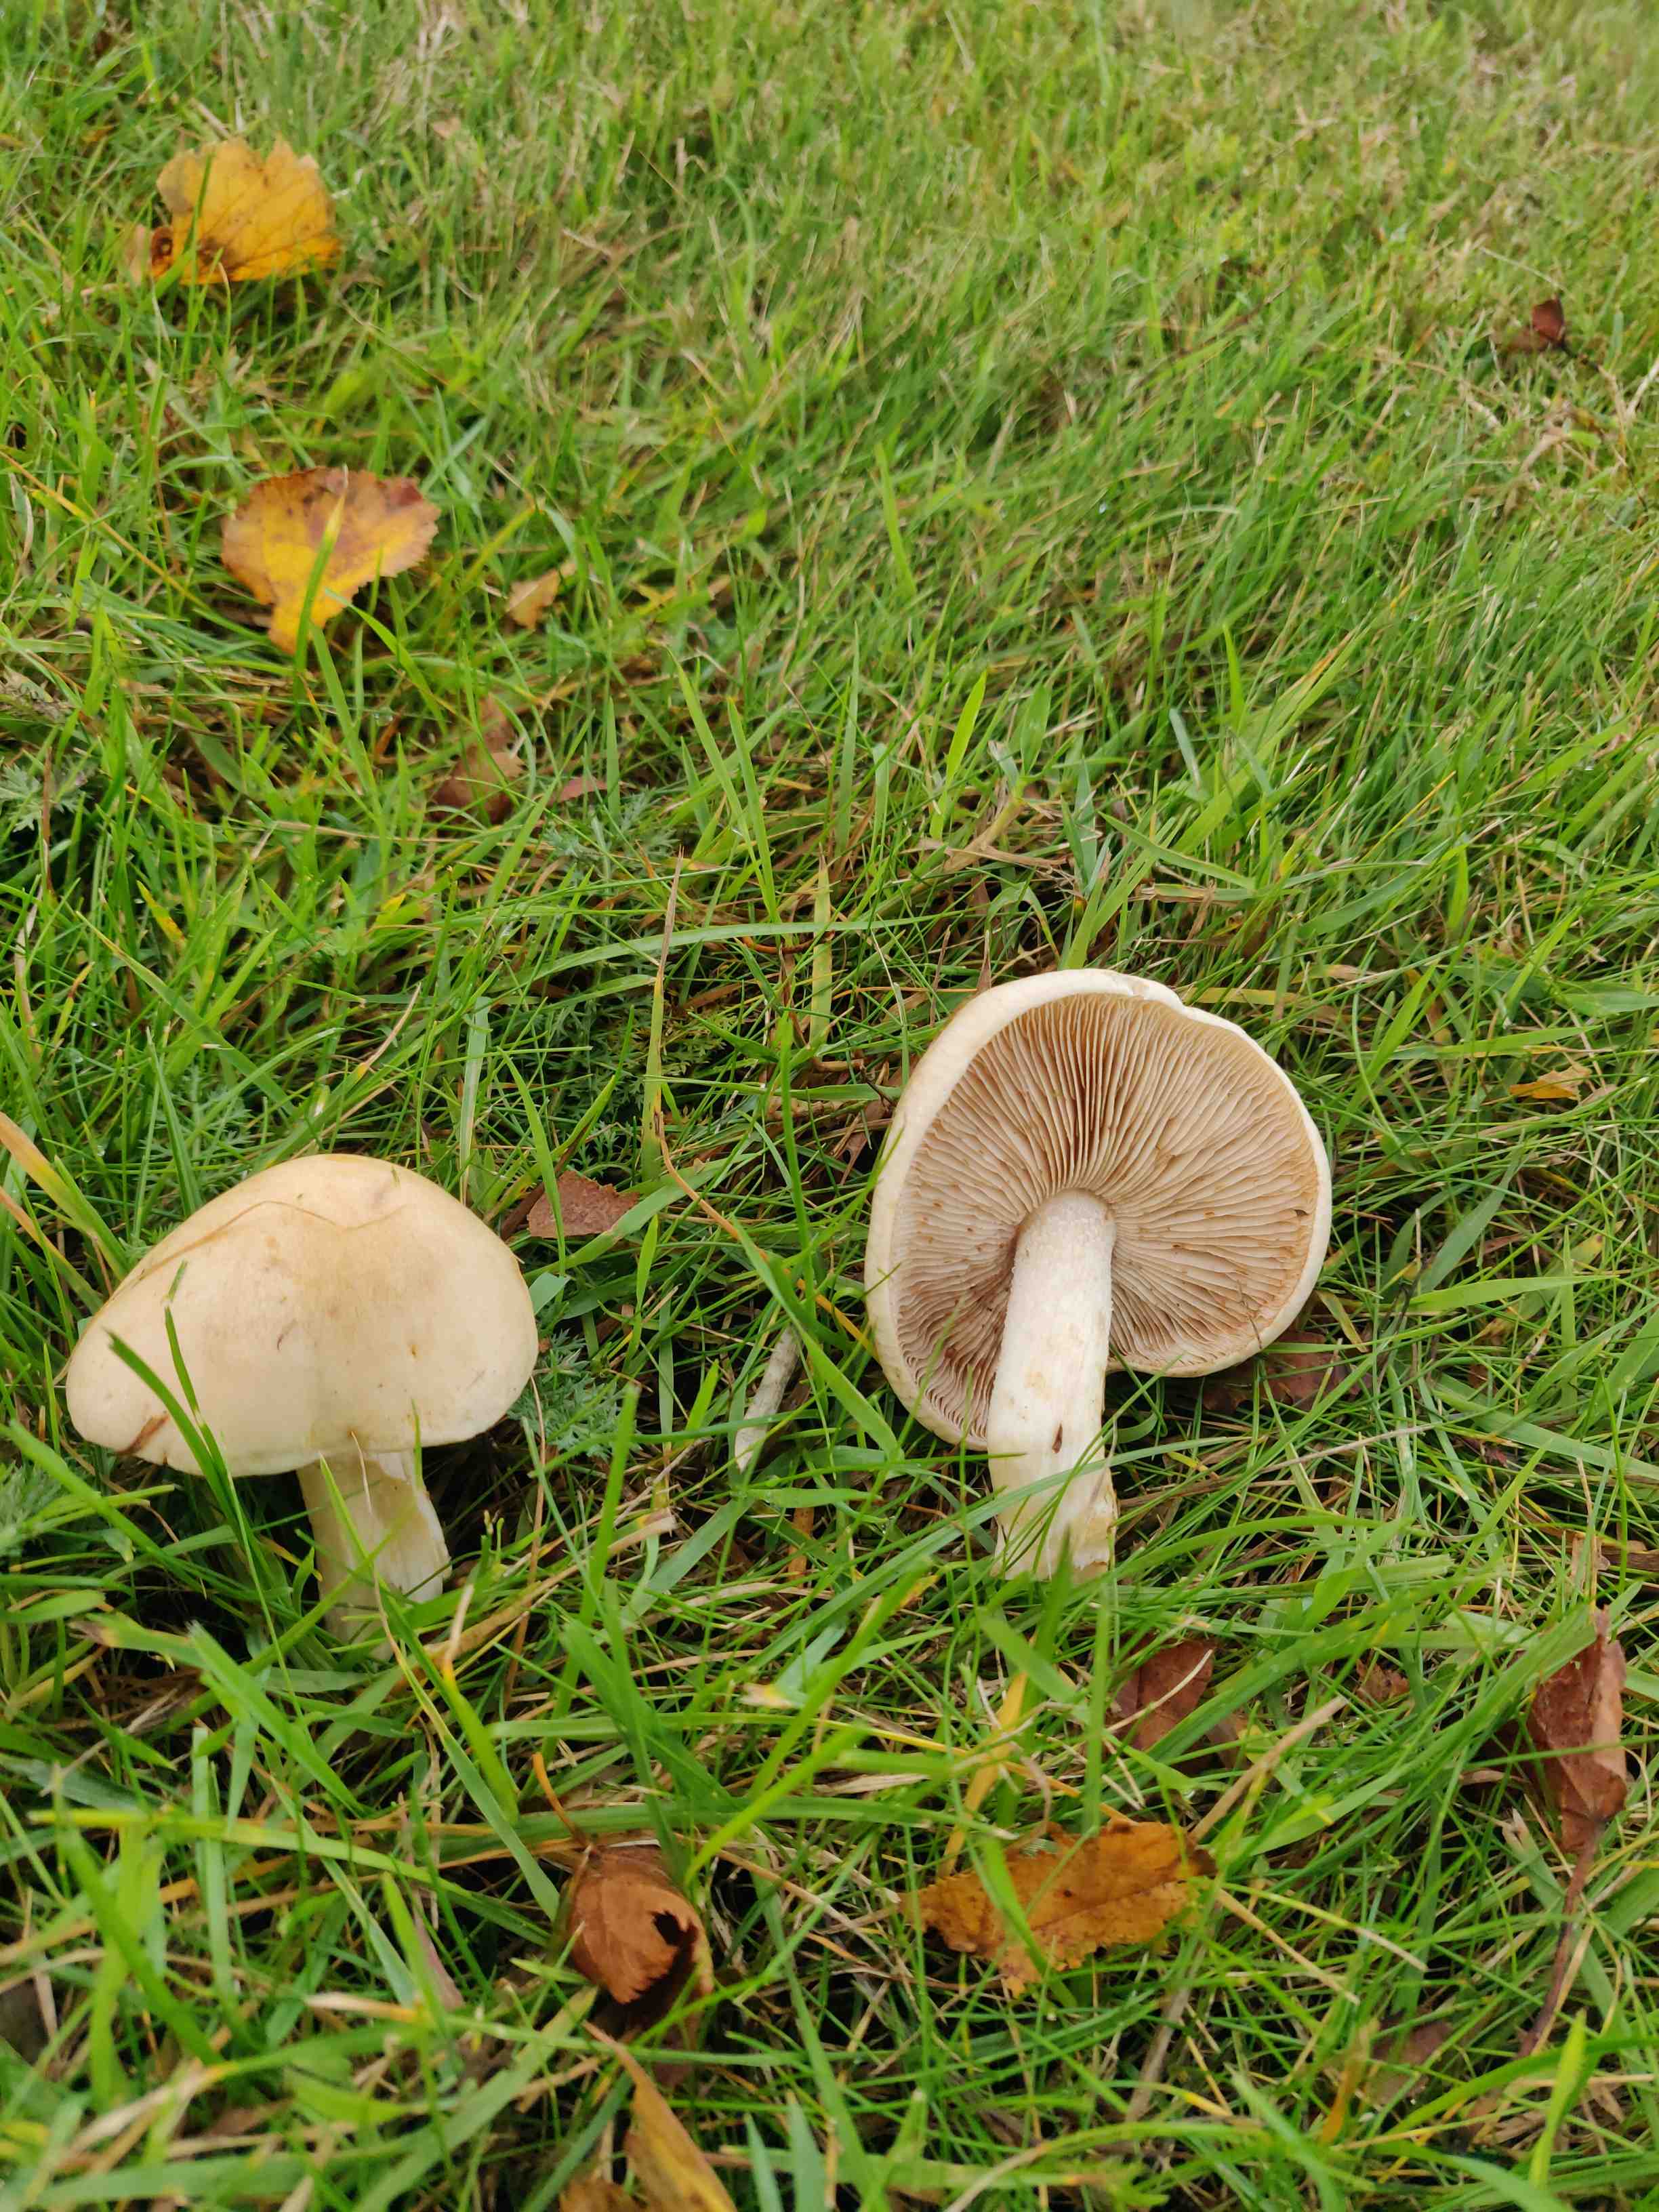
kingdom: Fungi
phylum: Basidiomycota
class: Agaricomycetes
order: Agaricales
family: Hymenogastraceae
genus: Hebeloma
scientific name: Hebeloma
